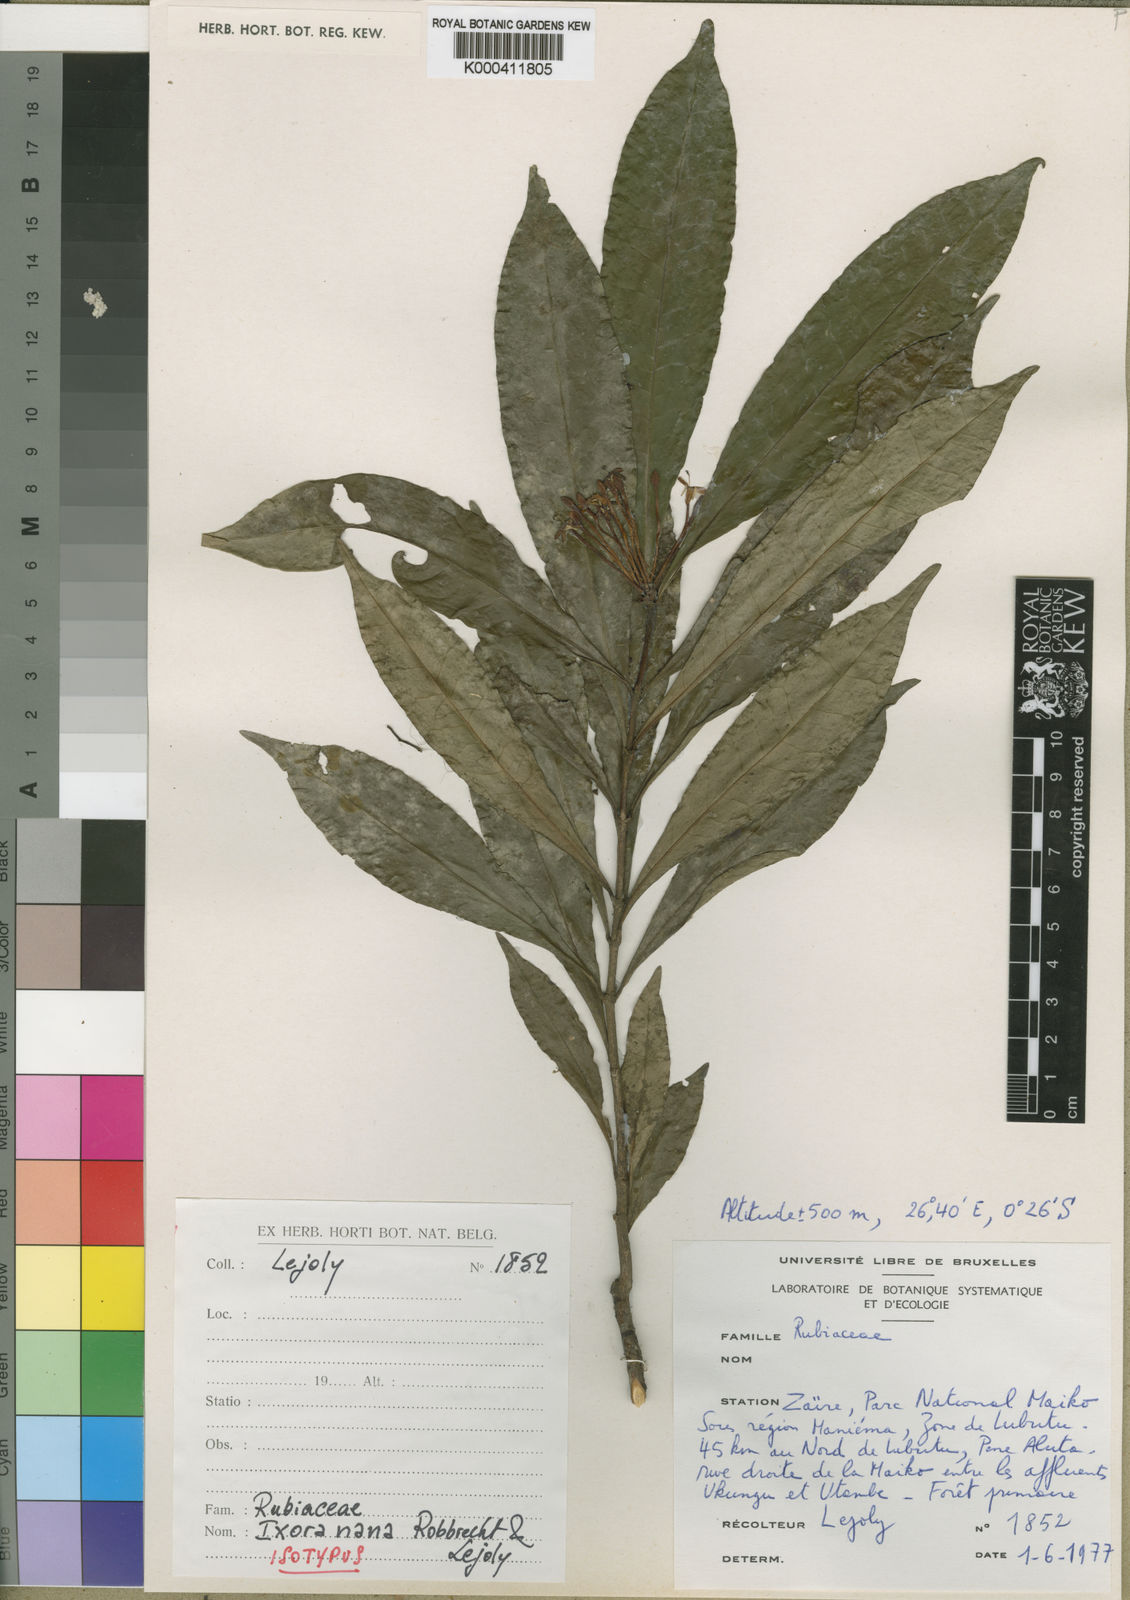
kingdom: Plantae
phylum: Tracheophyta
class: Magnoliopsida
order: Gentianales
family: Rubiaceae
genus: Ixora
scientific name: Ixora nana
